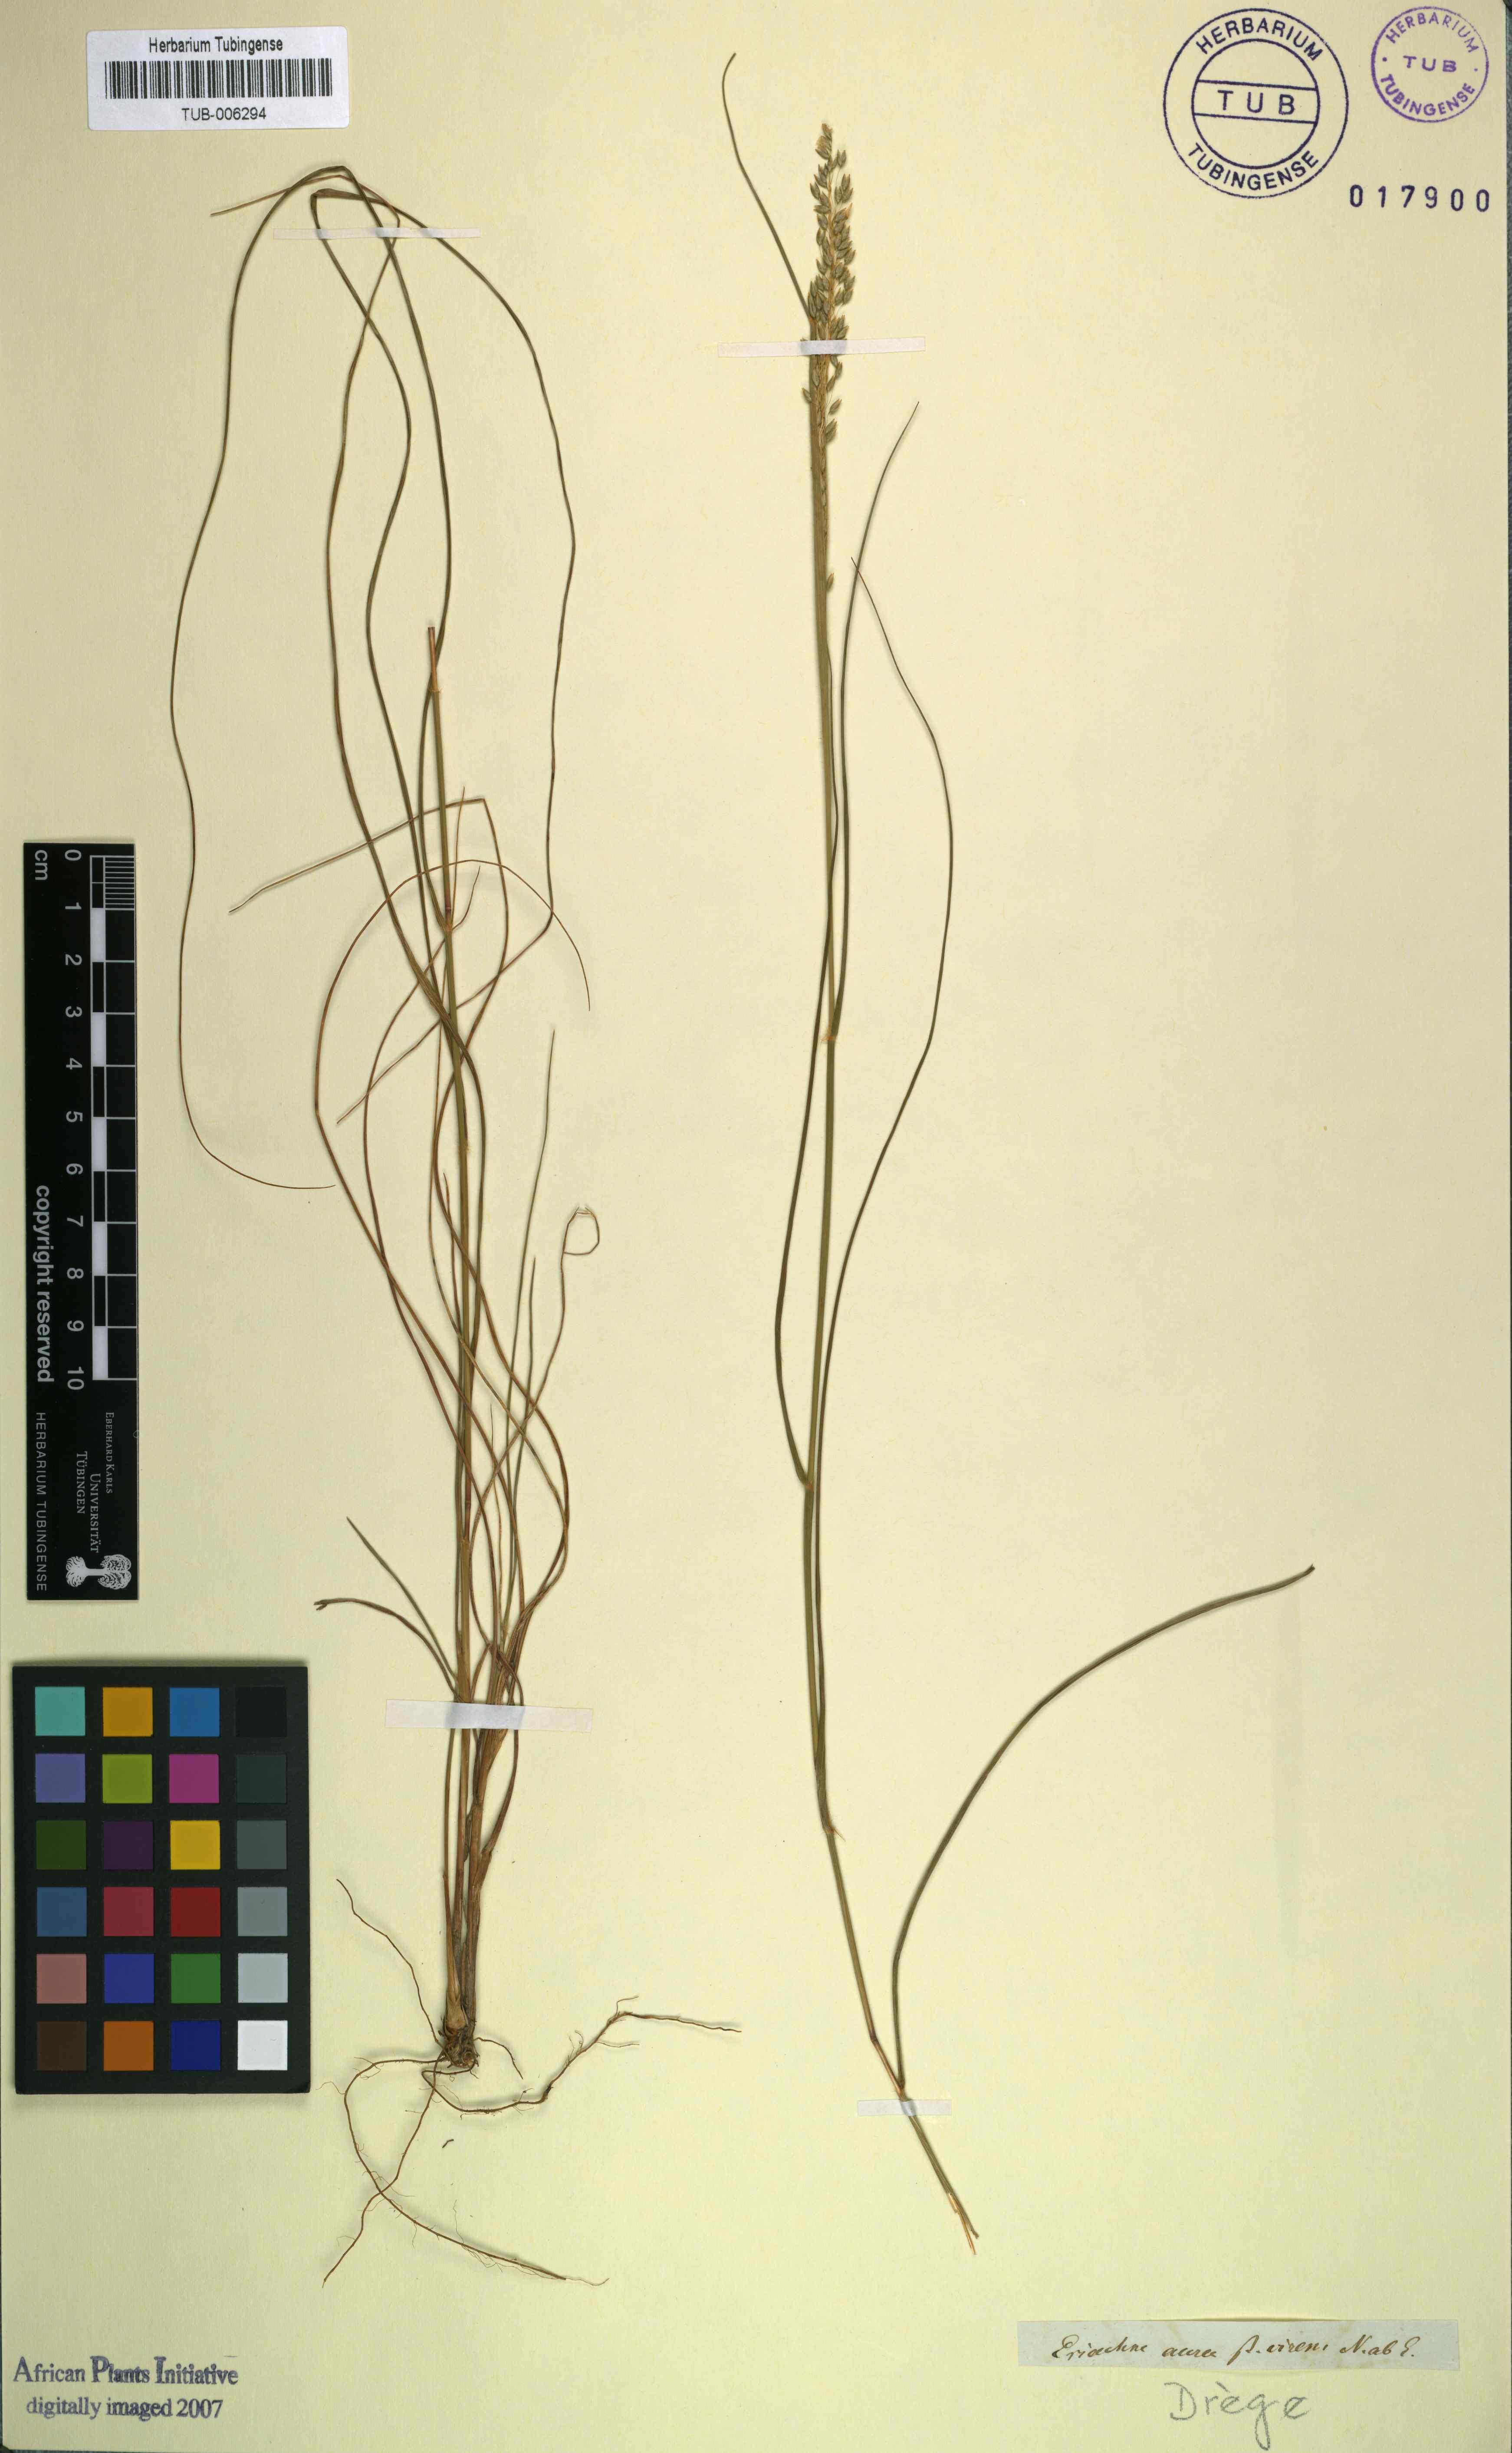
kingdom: Plantae
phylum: Tracheophyta
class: Liliopsida
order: Poales
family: Poaceae
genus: Pentameris
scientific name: Pentameris aurea
